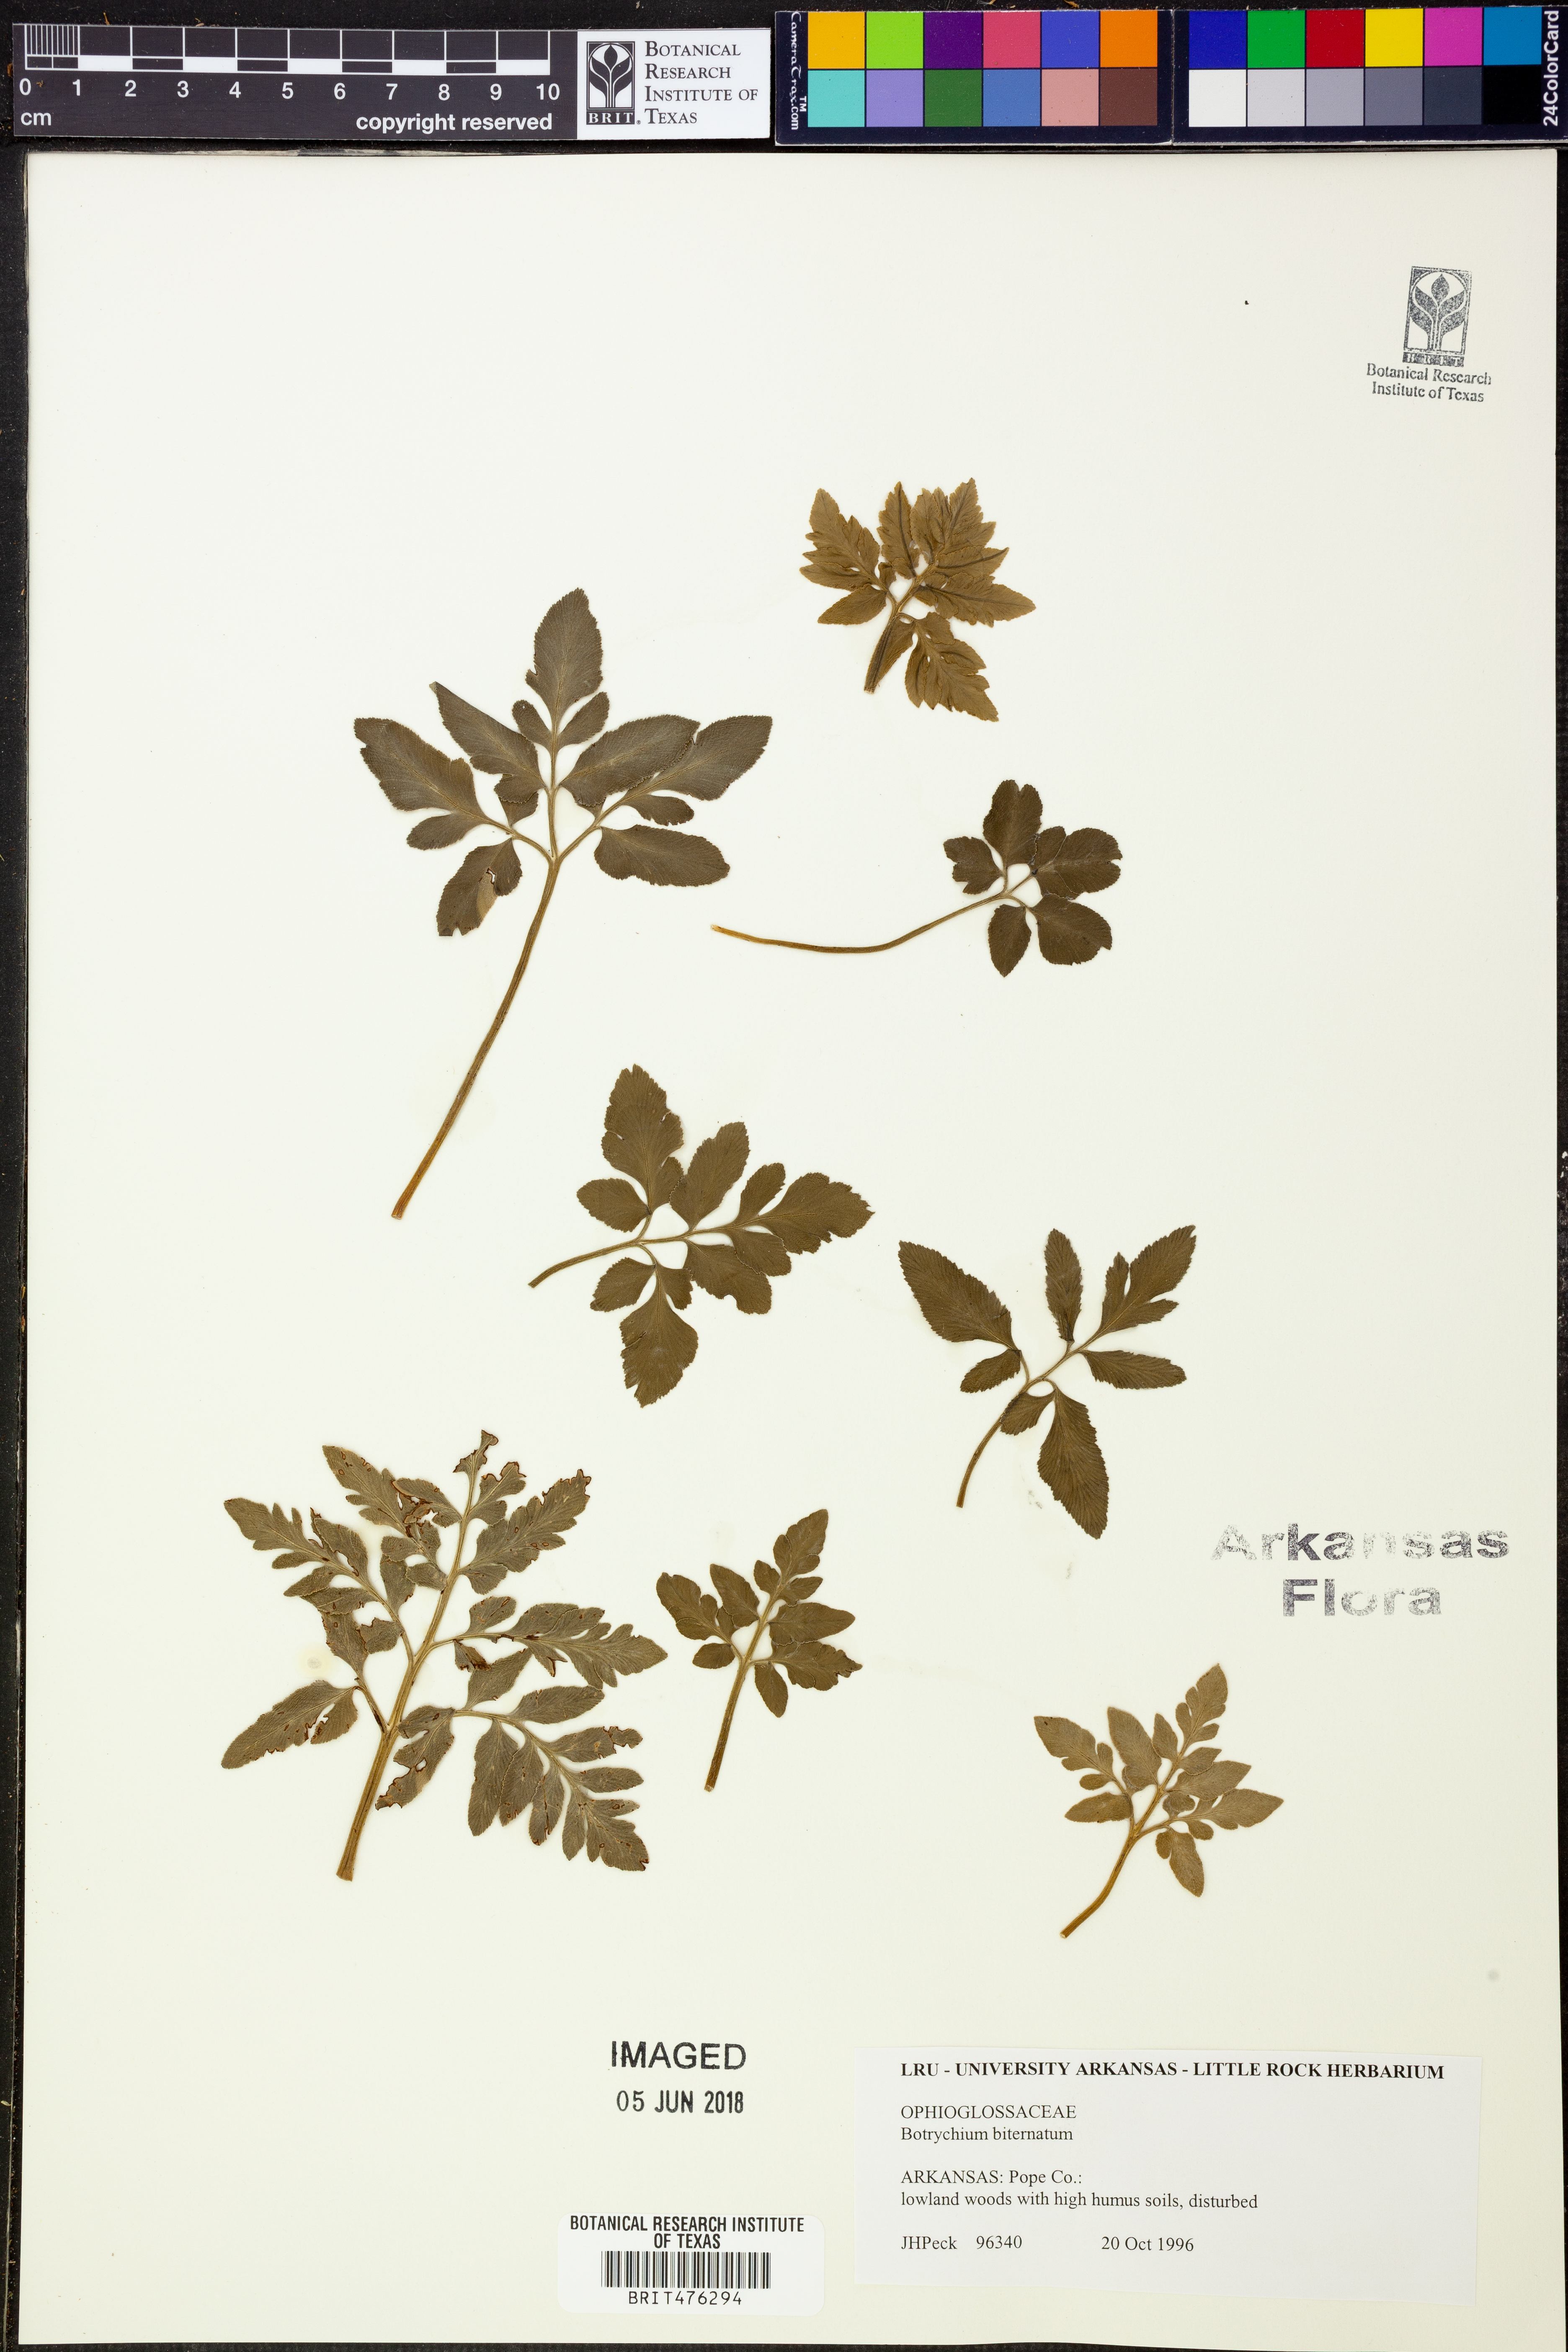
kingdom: Plantae
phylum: Tracheophyta
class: Polypodiopsida
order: Ophioglossales
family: Ophioglossaceae
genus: Sceptridium
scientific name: Sceptridium biternatum
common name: Sparse-lobed grapefern
